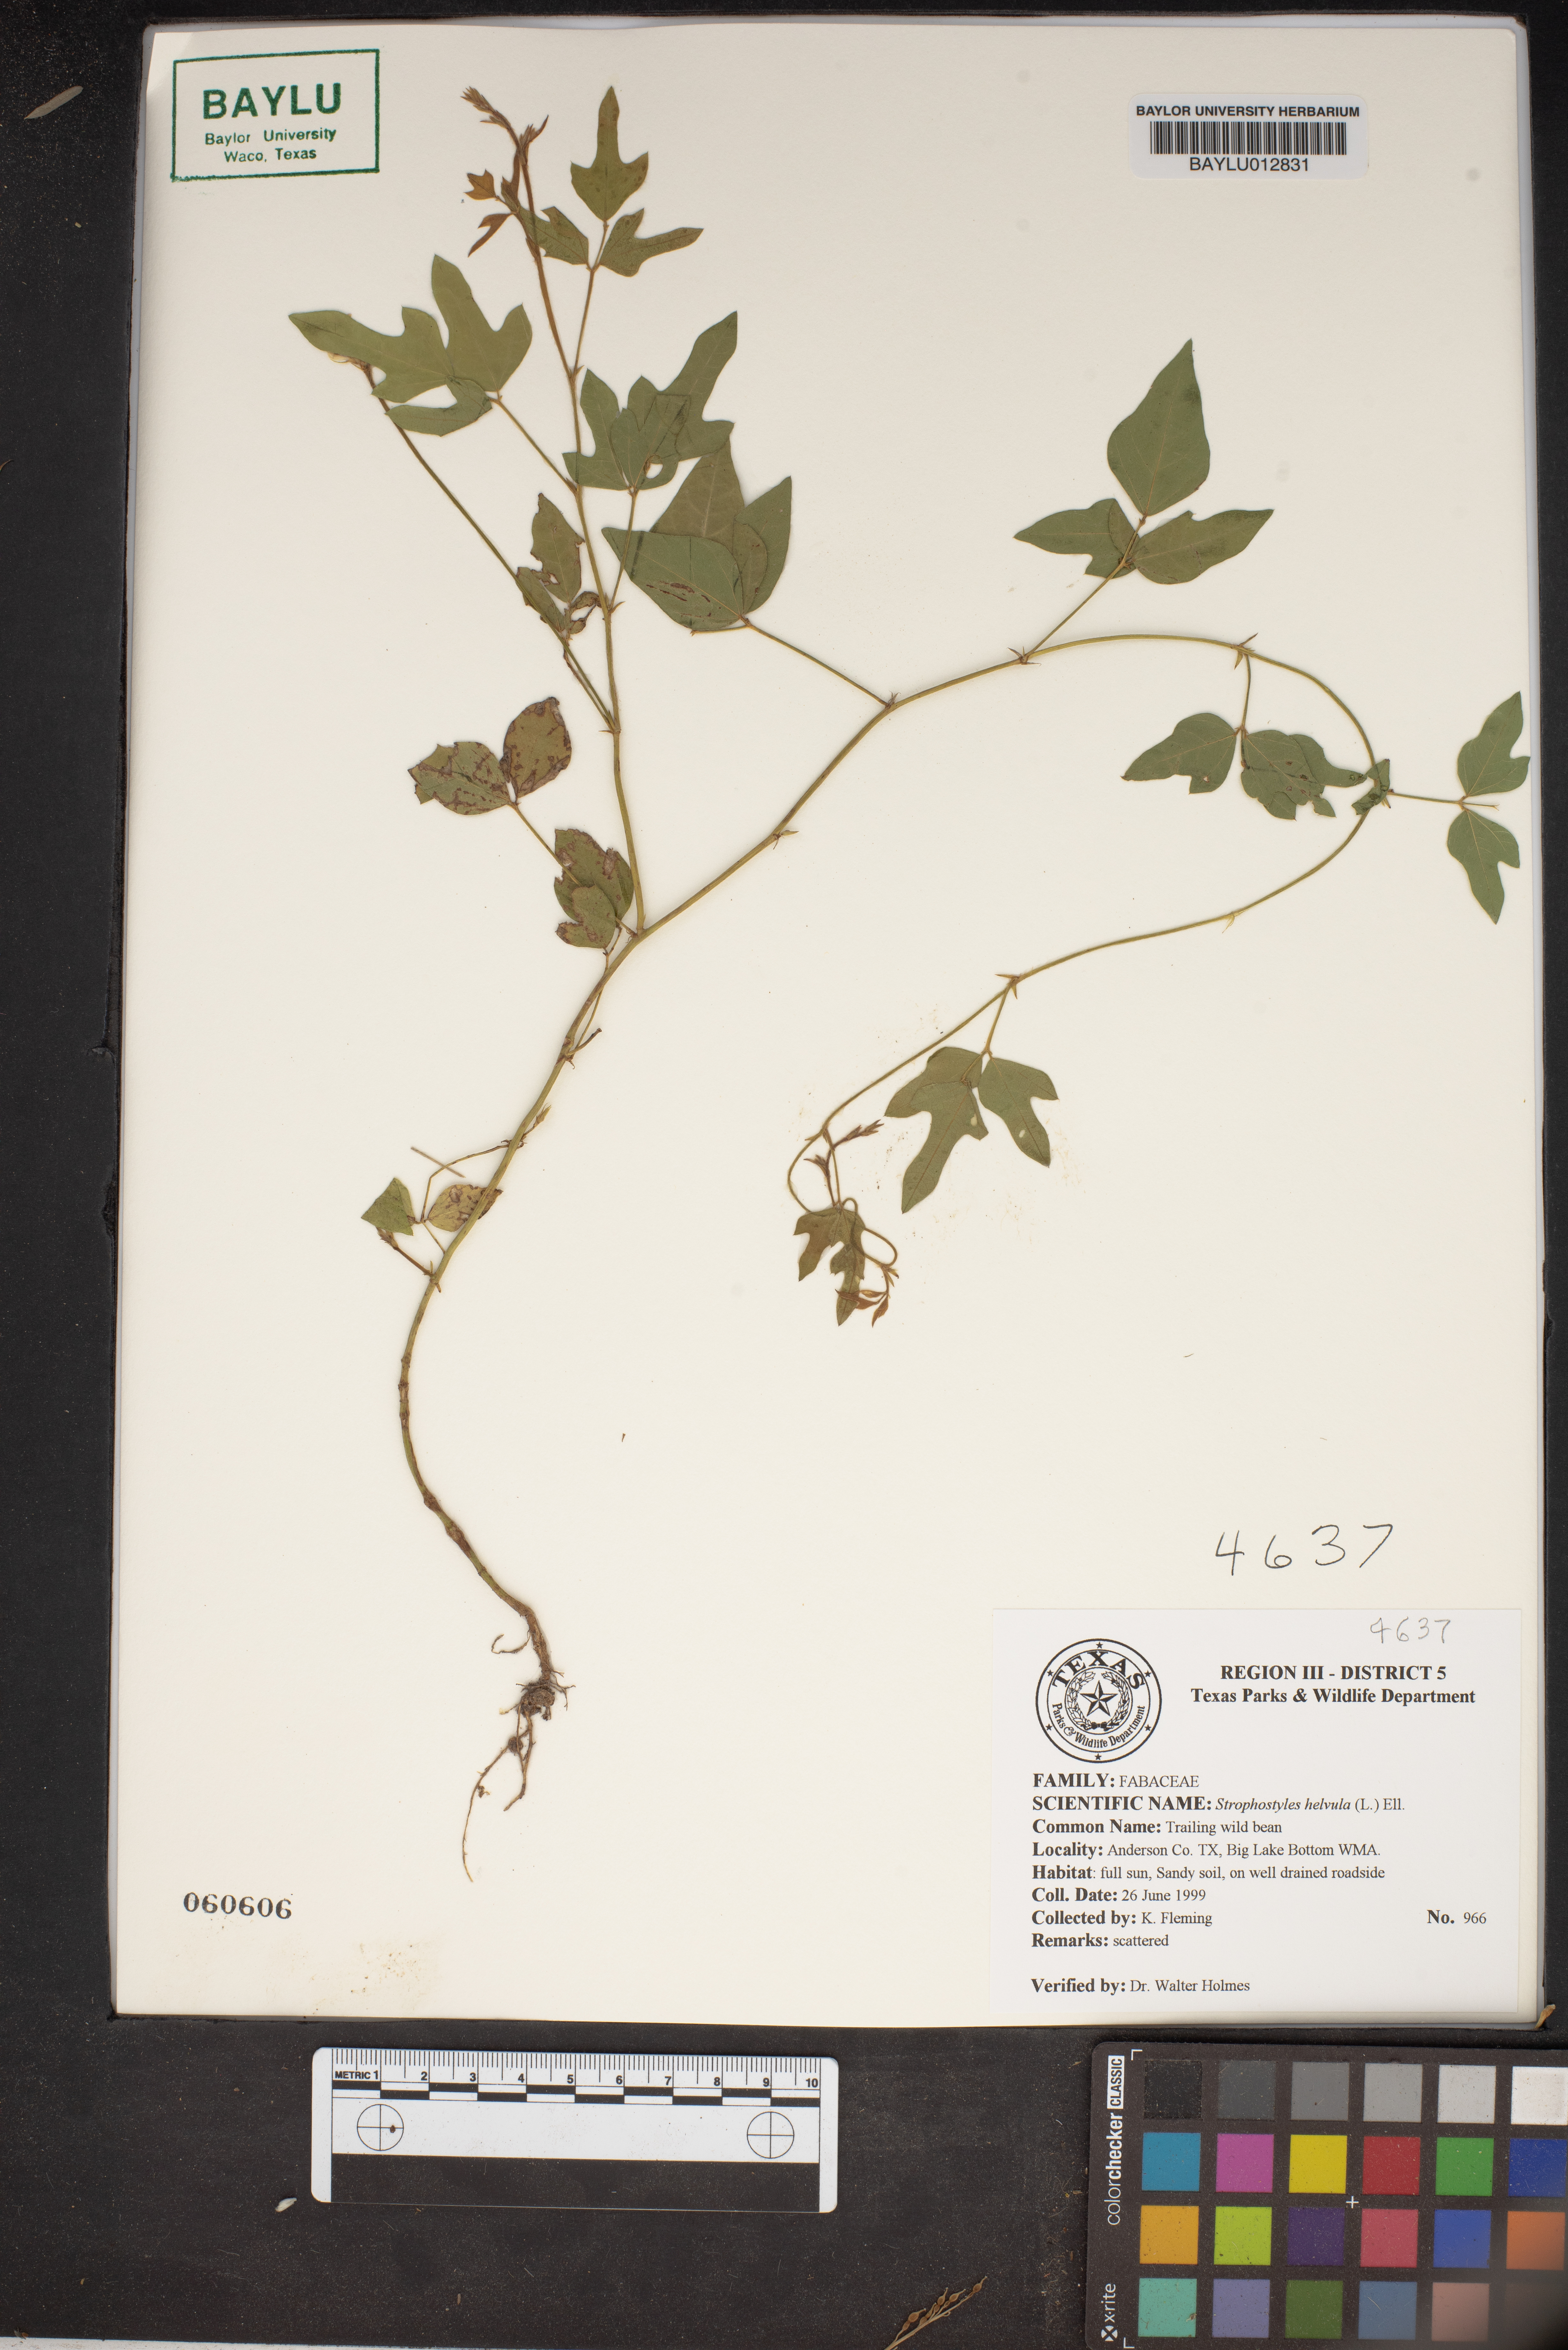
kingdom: Plantae
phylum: Tracheophyta
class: Magnoliopsida
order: Fabales
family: Fabaceae
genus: Strophostyles
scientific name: Strophostyles helvula
